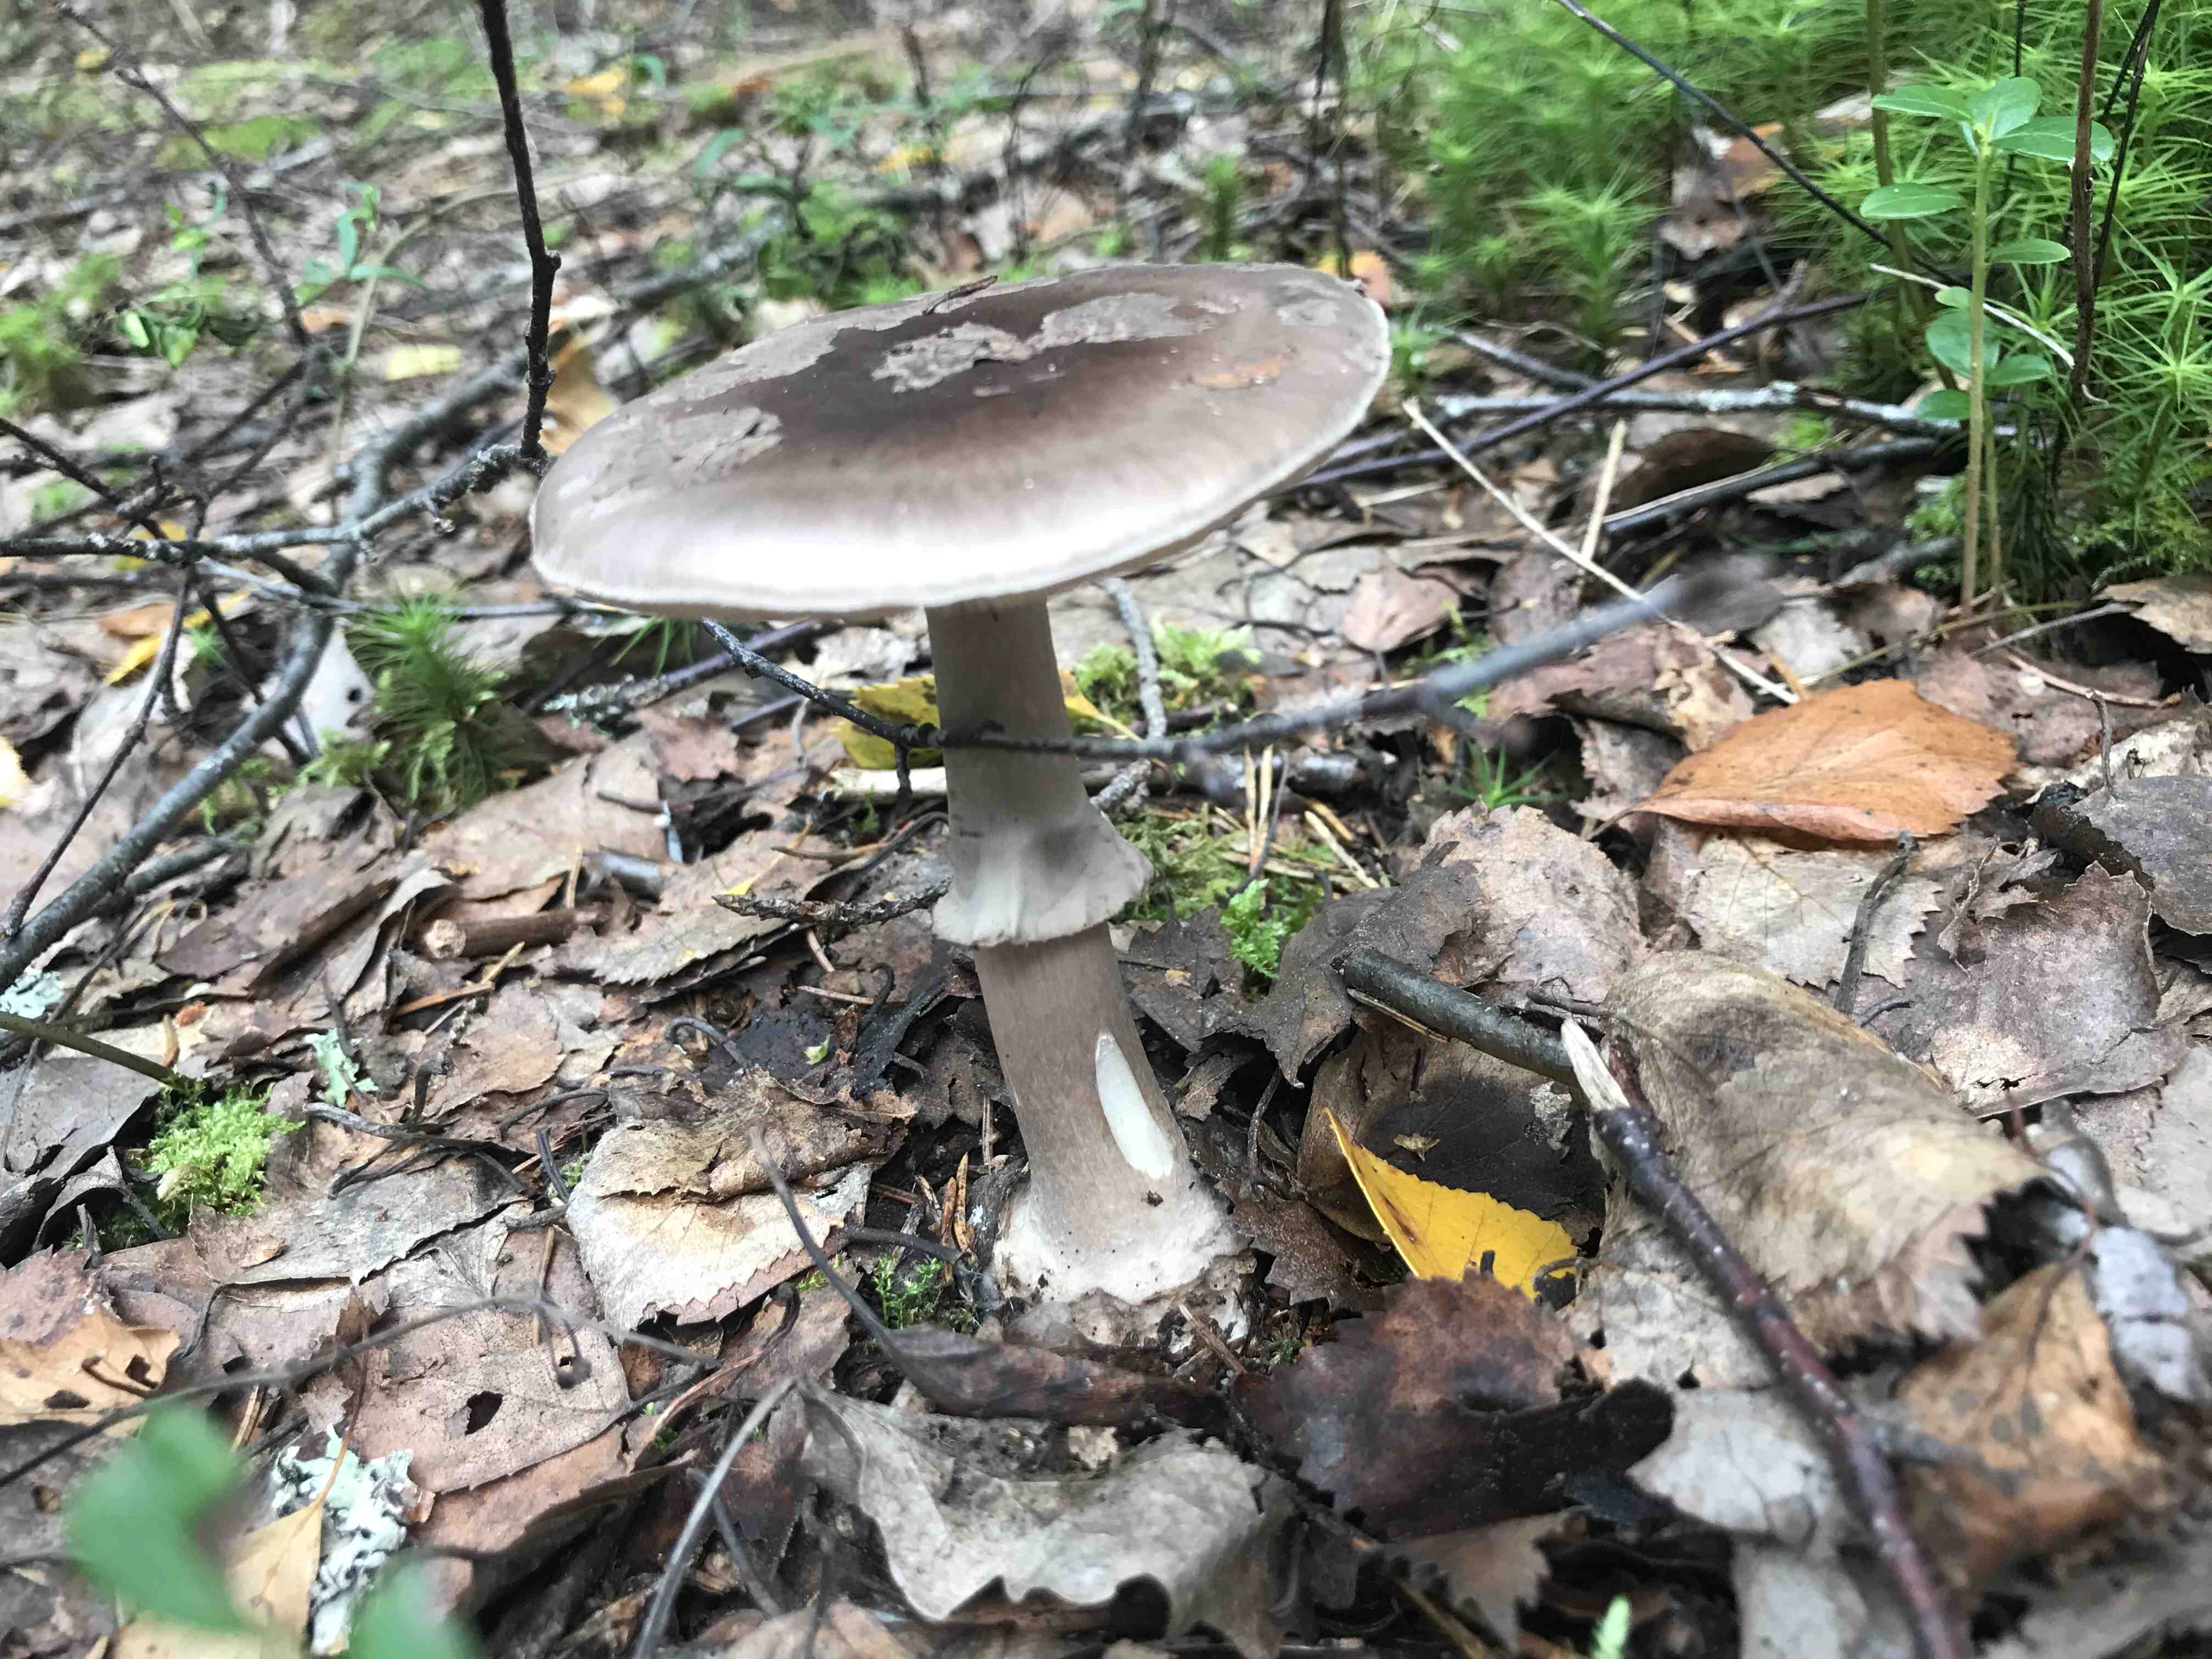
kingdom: Fungi
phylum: Basidiomycota
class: Agaricomycetes
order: Agaricales
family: Amanitaceae
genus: Amanita
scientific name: Amanita
